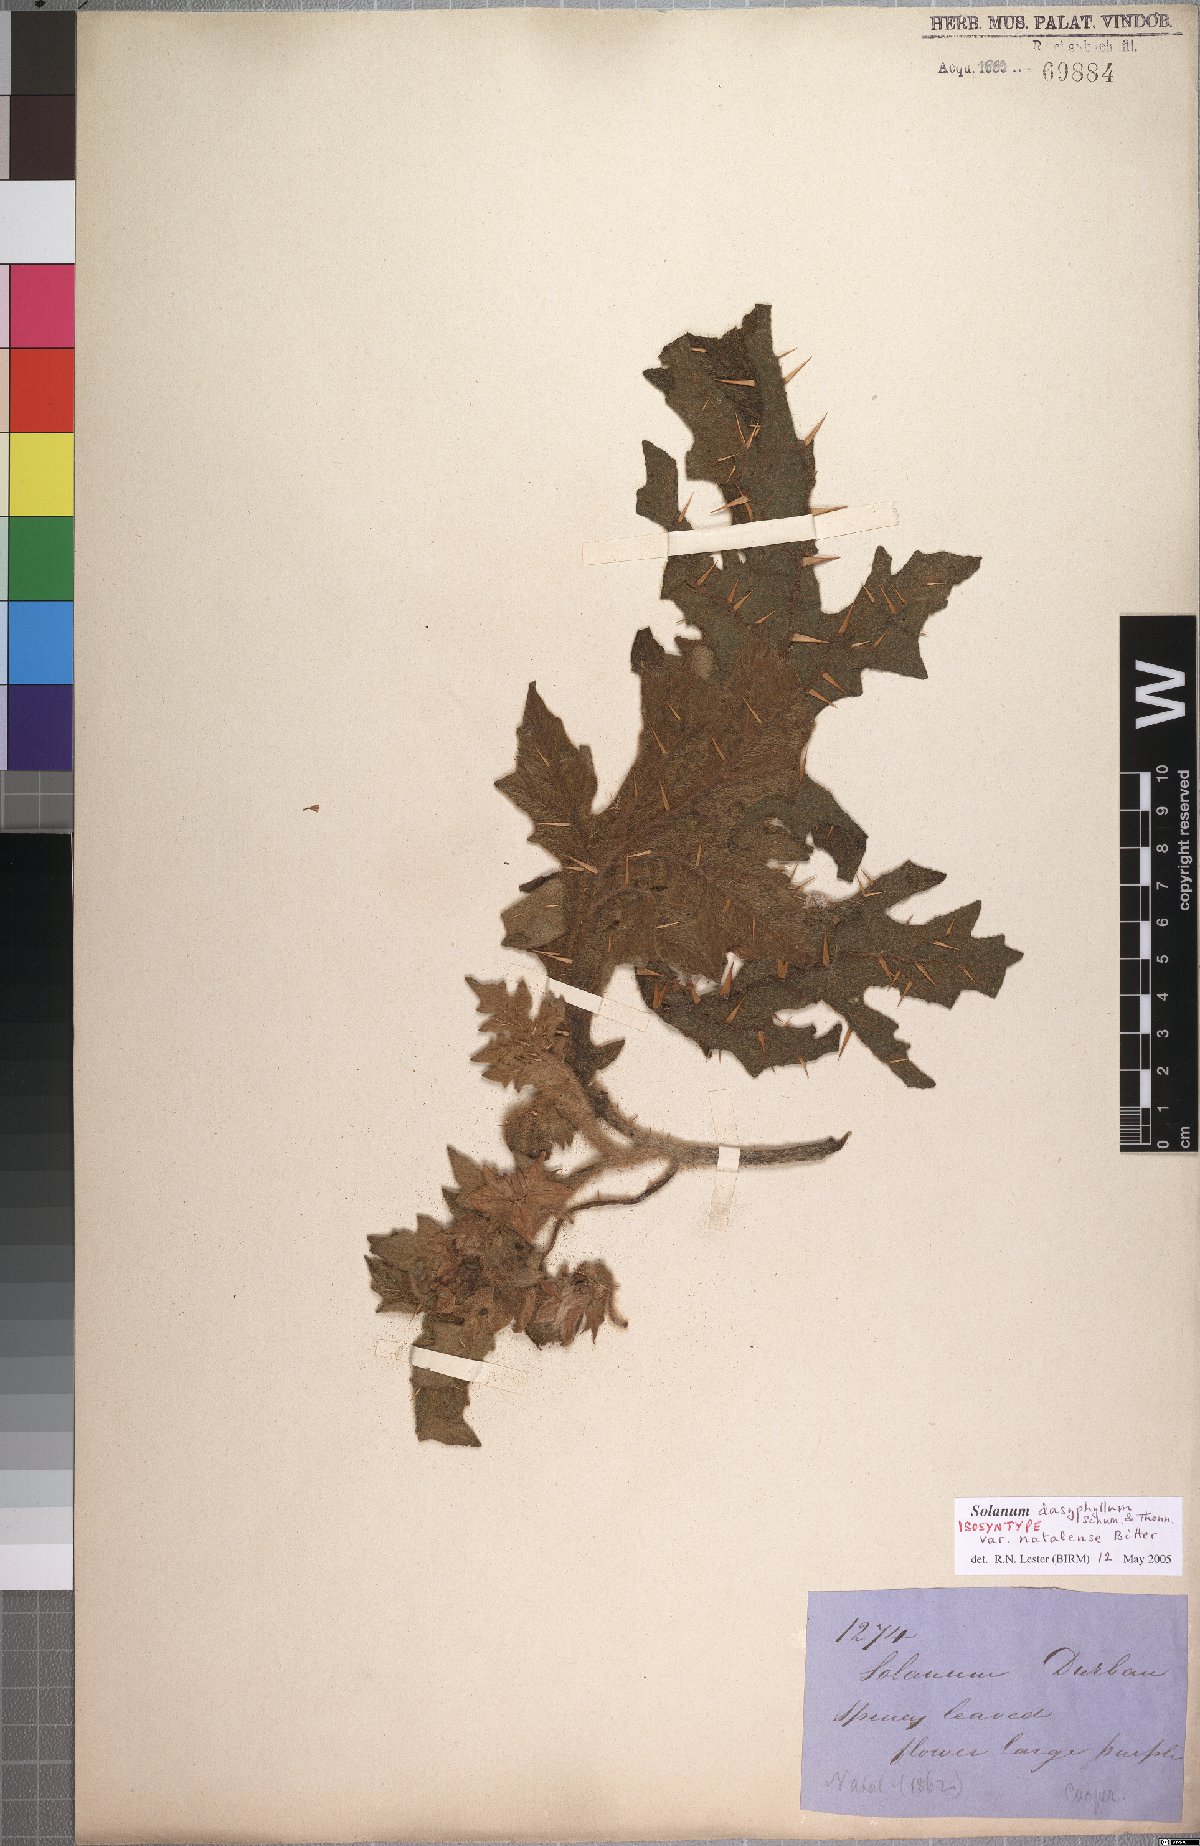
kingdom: Plantae
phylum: Tracheophyta
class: Magnoliopsida
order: Solanales
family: Solanaceae
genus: Solanum
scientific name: Solanum dasyphyllum
